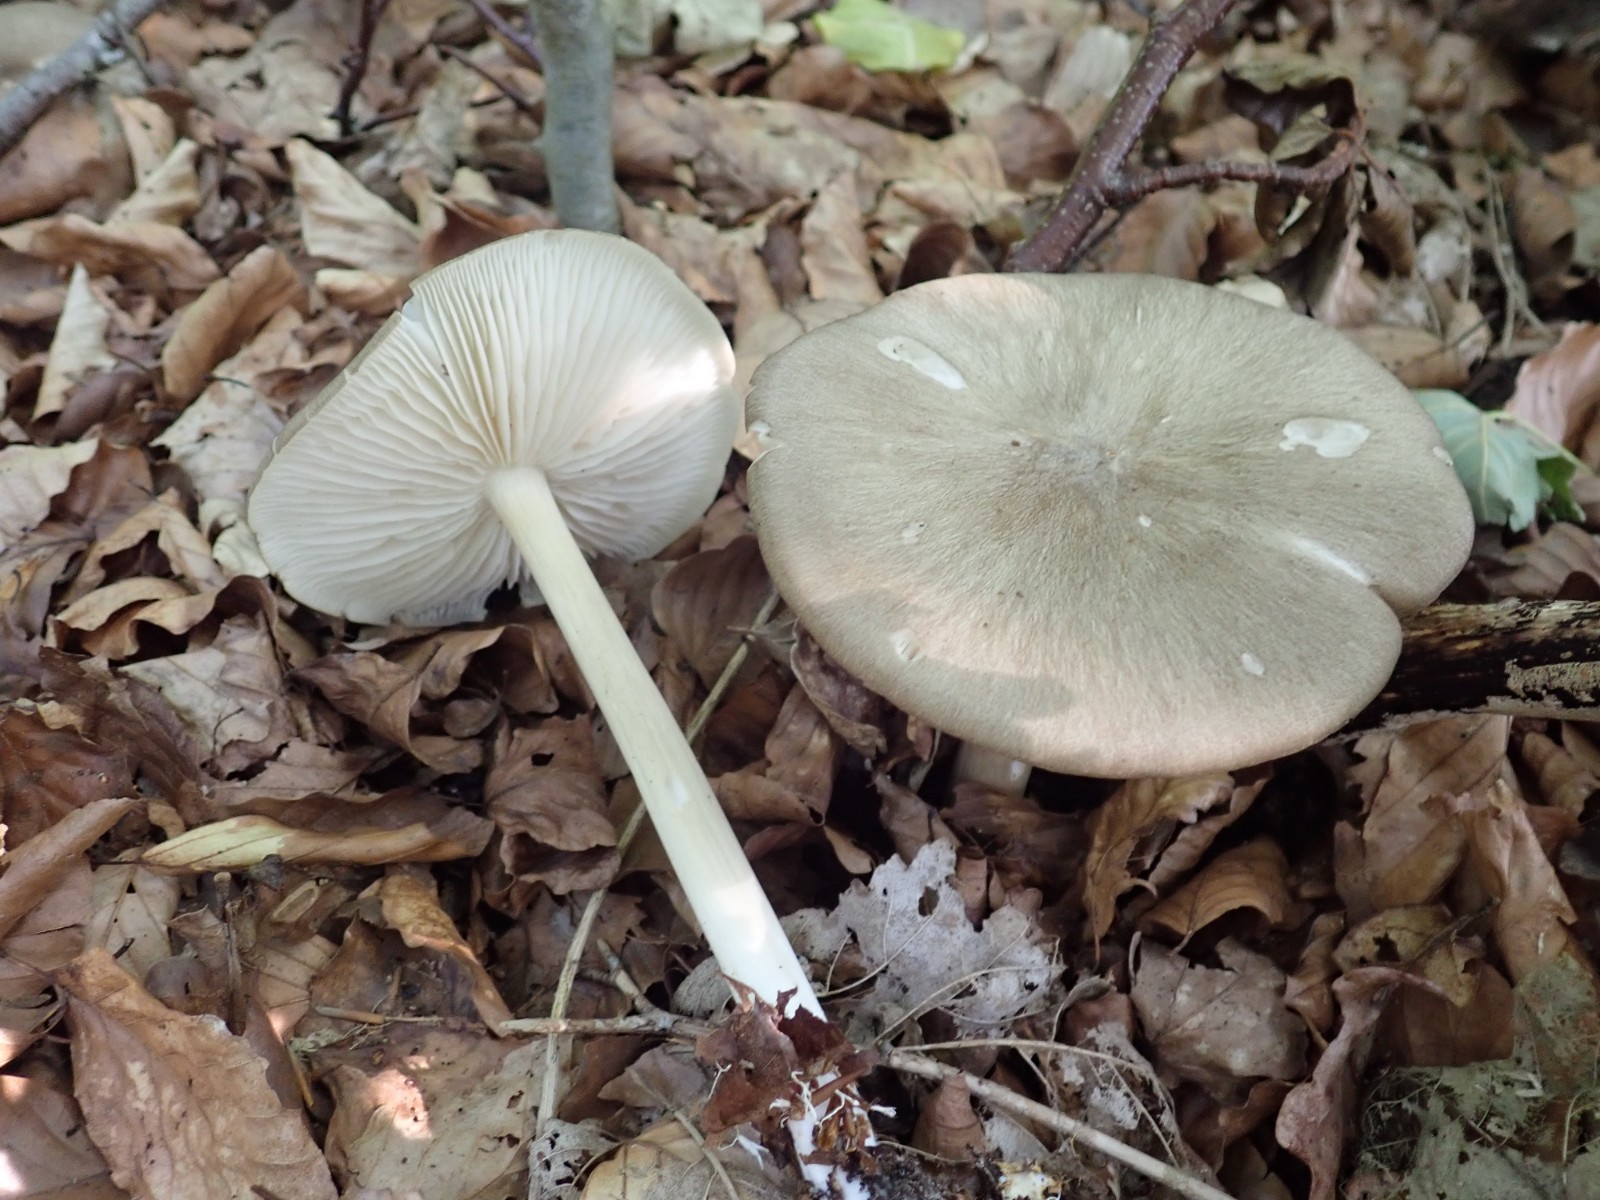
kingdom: Fungi
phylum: Basidiomycota
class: Agaricomycetes
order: Agaricales
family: Tricholomataceae
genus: Megacollybia
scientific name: Megacollybia platyphylla
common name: bredbladet væbnerhat
